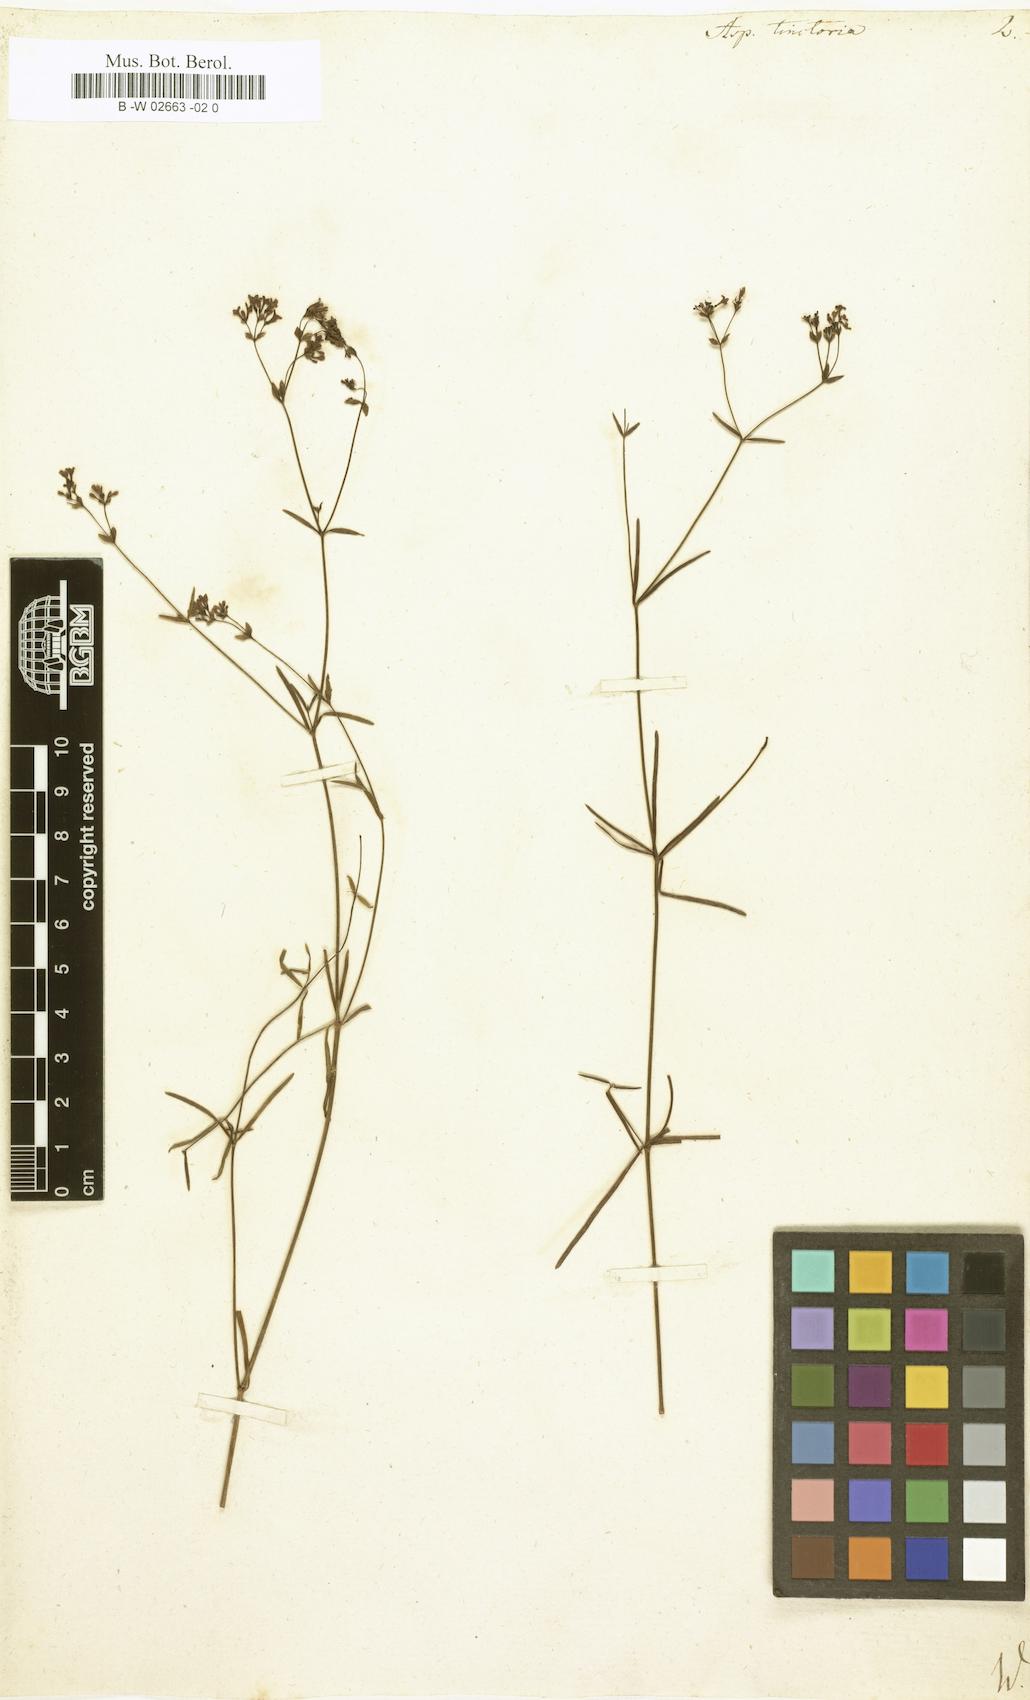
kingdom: Plantae
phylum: Tracheophyta
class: Magnoliopsida
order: Gentianales
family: Rubiaceae
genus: Asperula
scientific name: Asperula tinctoria
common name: Dyer's woodruff
